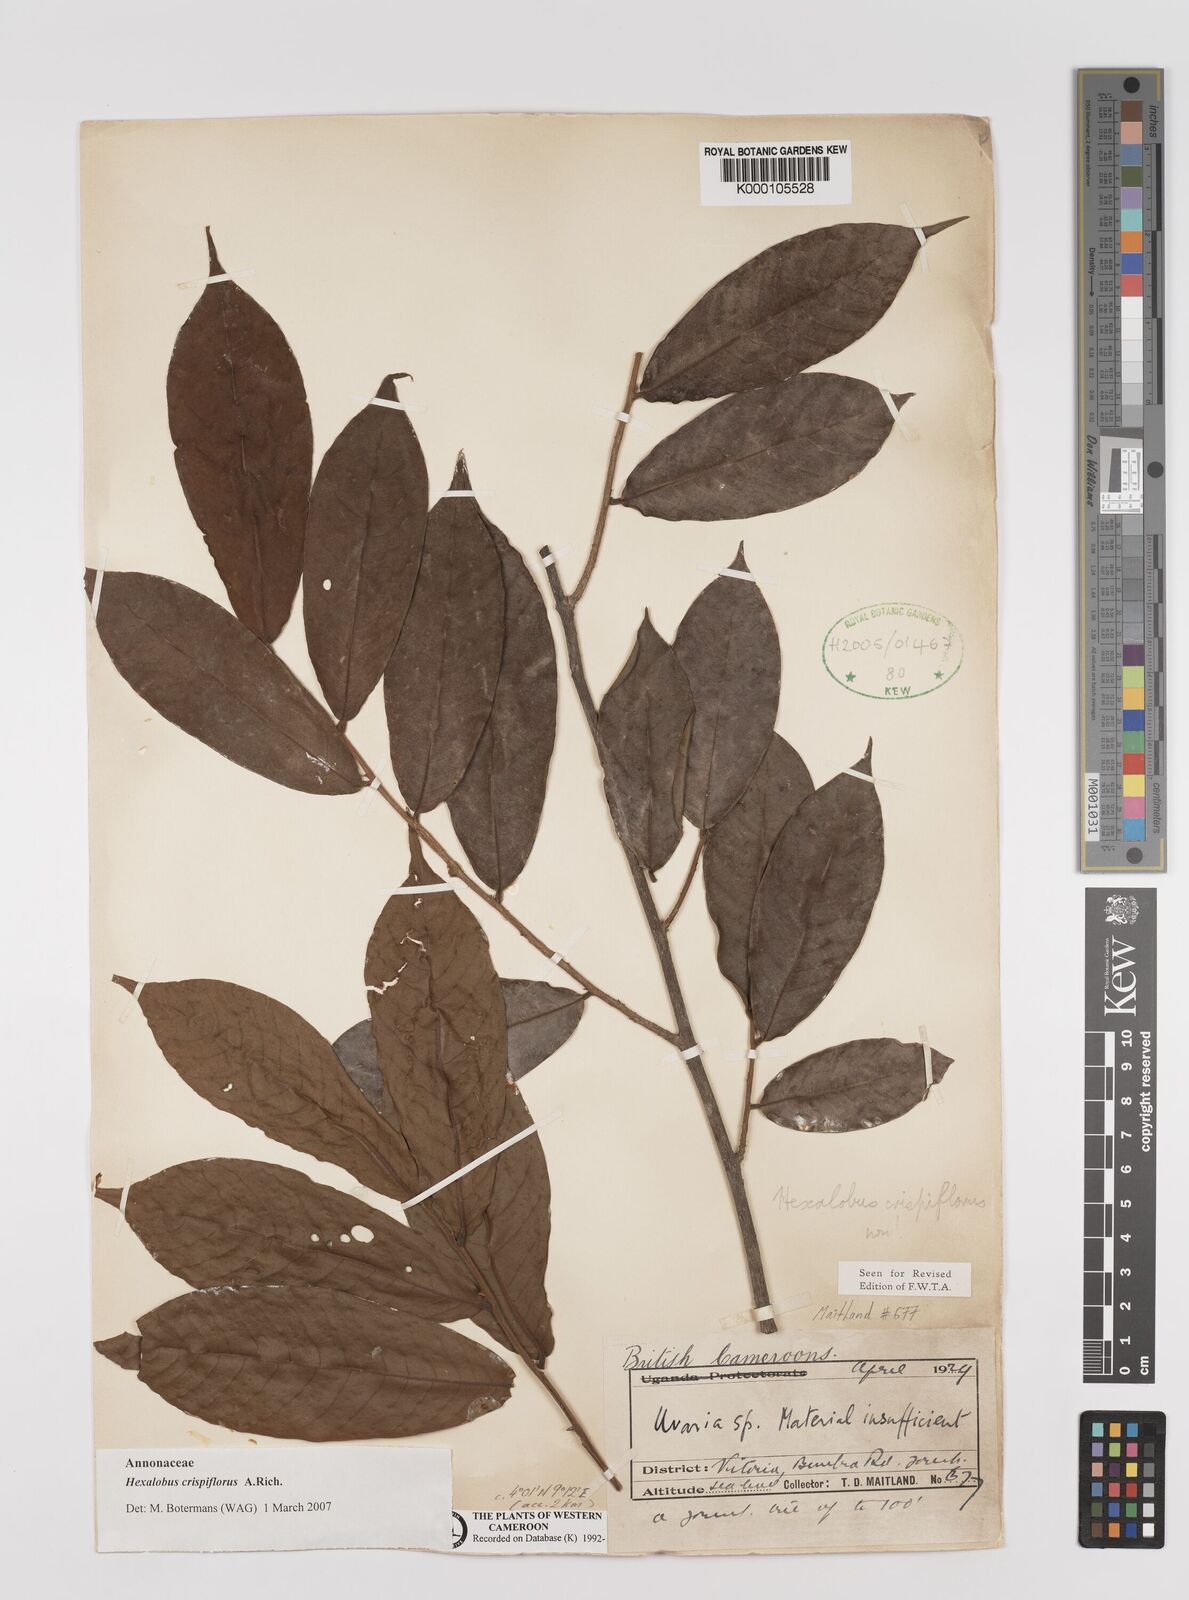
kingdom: Plantae
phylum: Tracheophyta
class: Magnoliopsida
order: Magnoliales
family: Annonaceae
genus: Hexalobus
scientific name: Hexalobus crispiflorus
